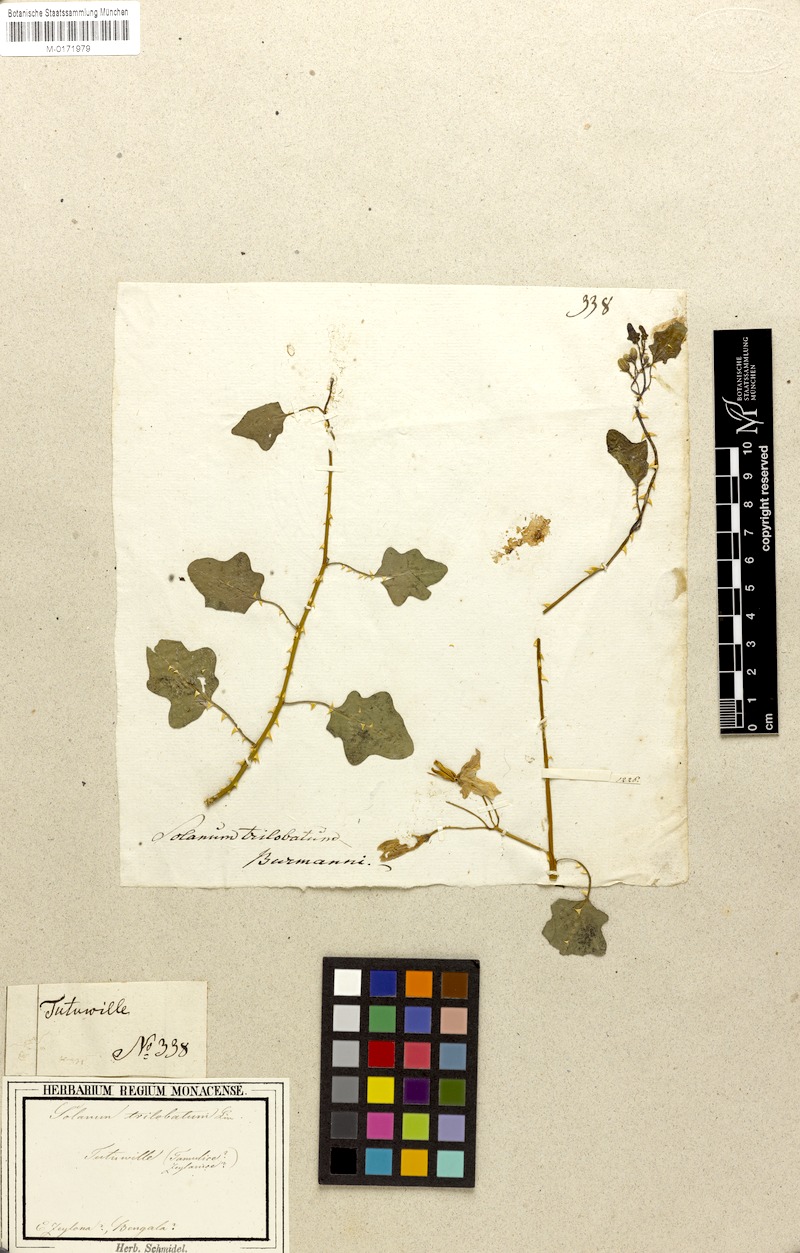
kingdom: Plantae
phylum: Tracheophyta
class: Magnoliopsida
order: Solanales
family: Solanaceae
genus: Solanum
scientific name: Solanum trilobatum
